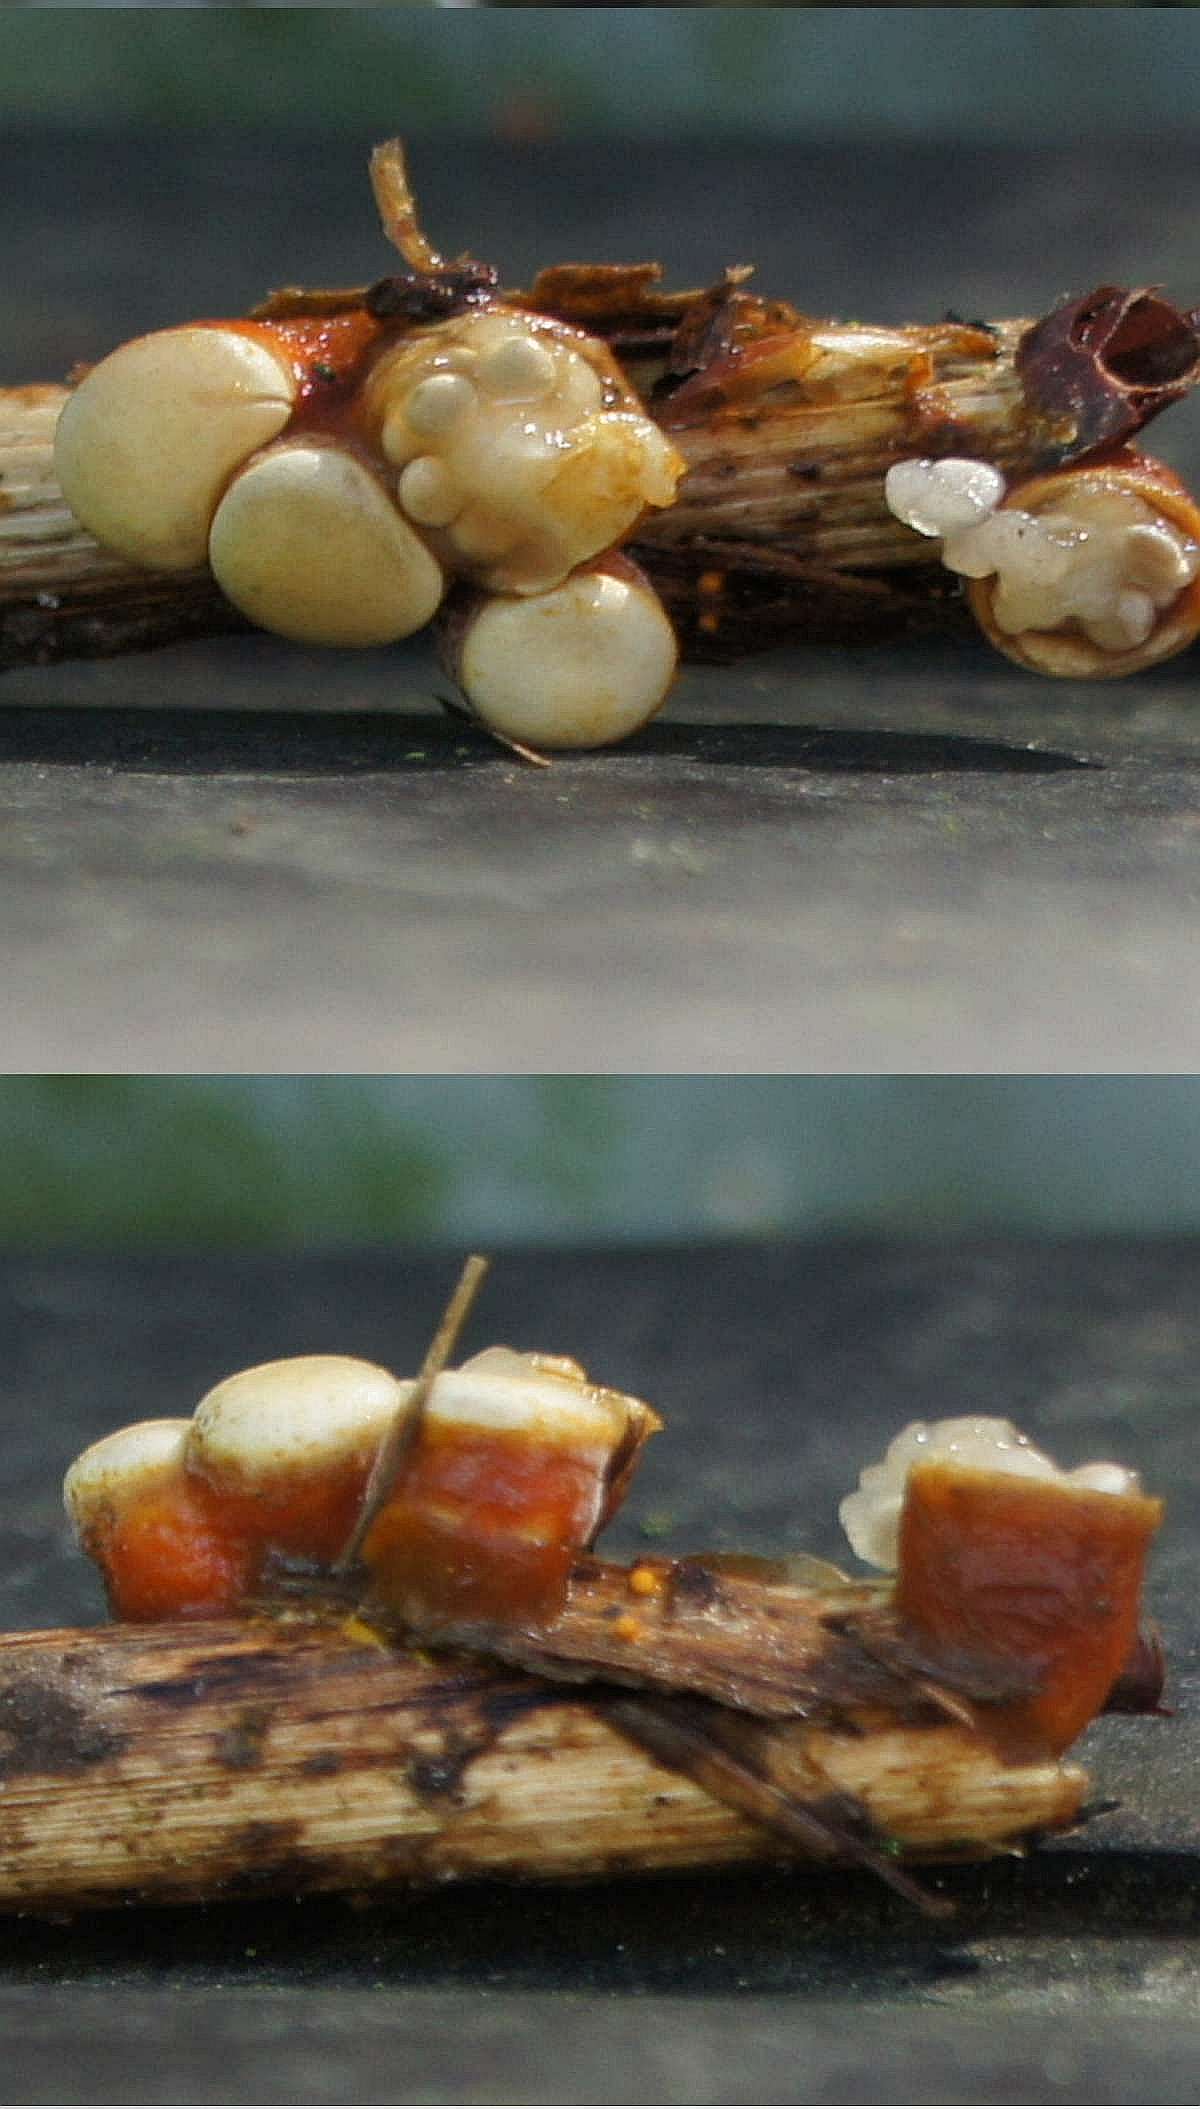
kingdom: Fungi
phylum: Basidiomycota
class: Agaricomycetes
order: Agaricales
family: Nidulariaceae
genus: Crucibulum
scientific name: Crucibulum crucibuliforme
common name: krukkesvamp
